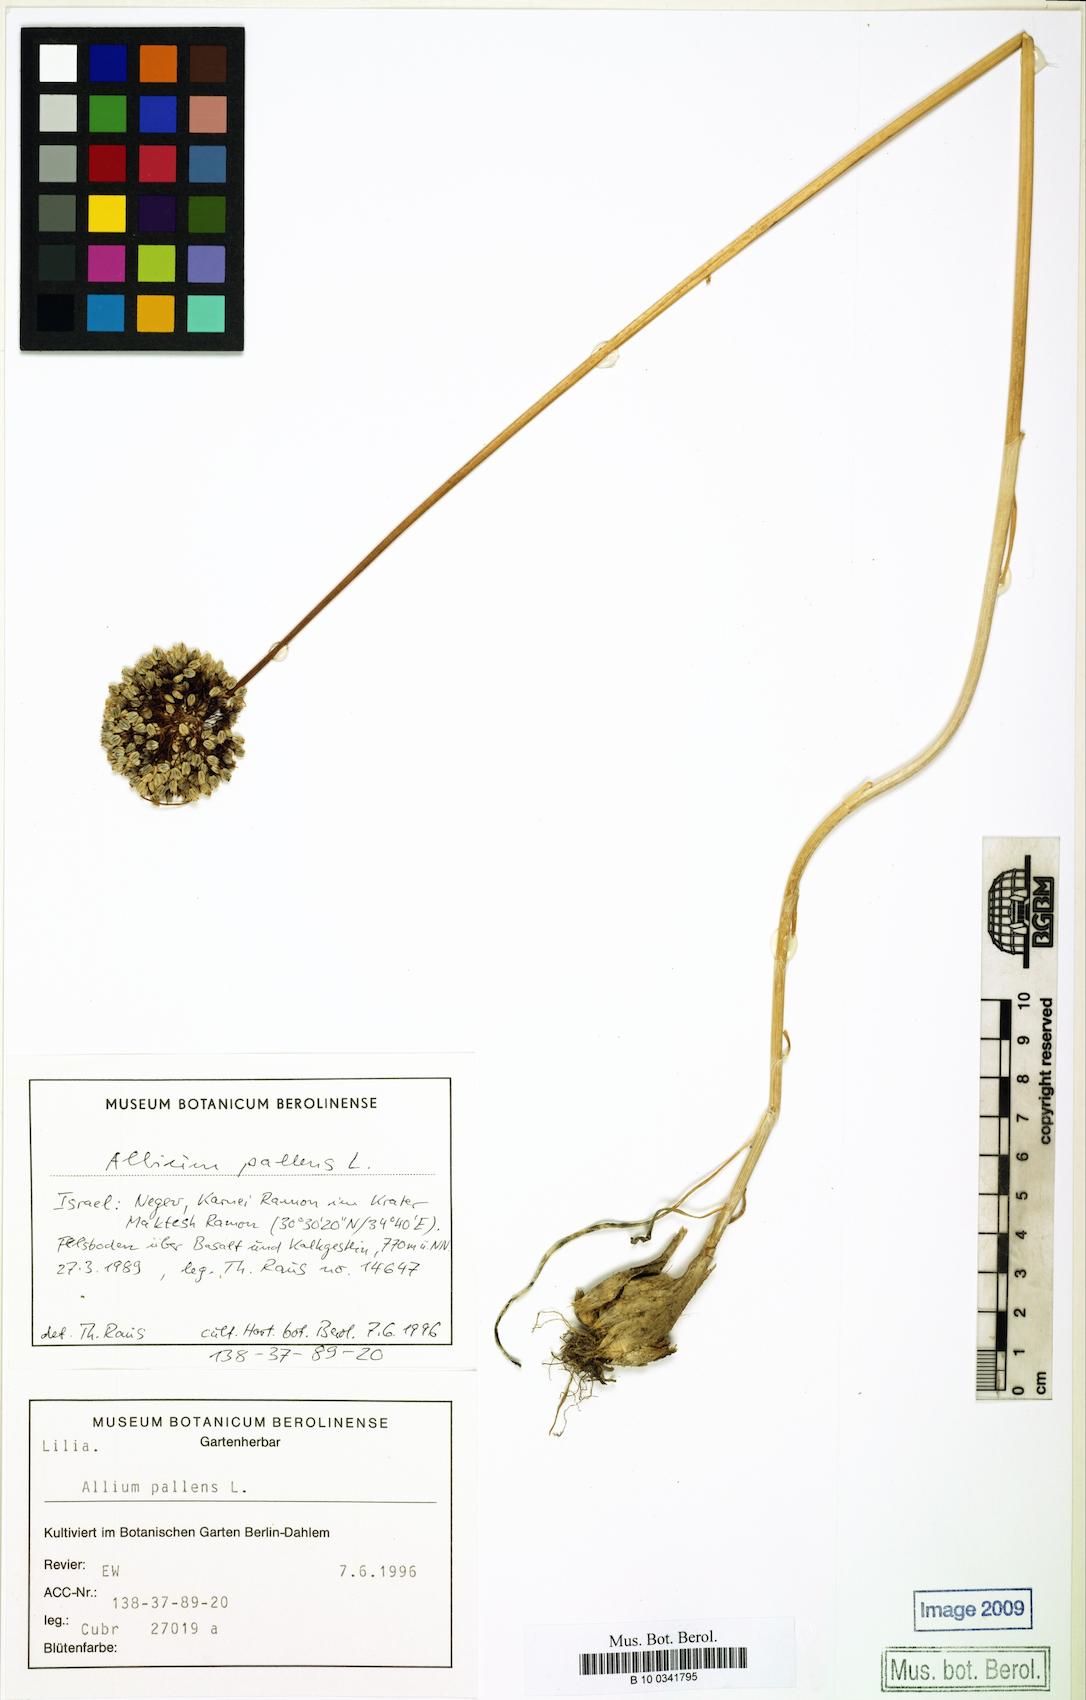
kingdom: Plantae
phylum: Tracheophyta
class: Liliopsida
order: Asparagales
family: Amaryllidaceae
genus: Allium
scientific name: Allium pallens
